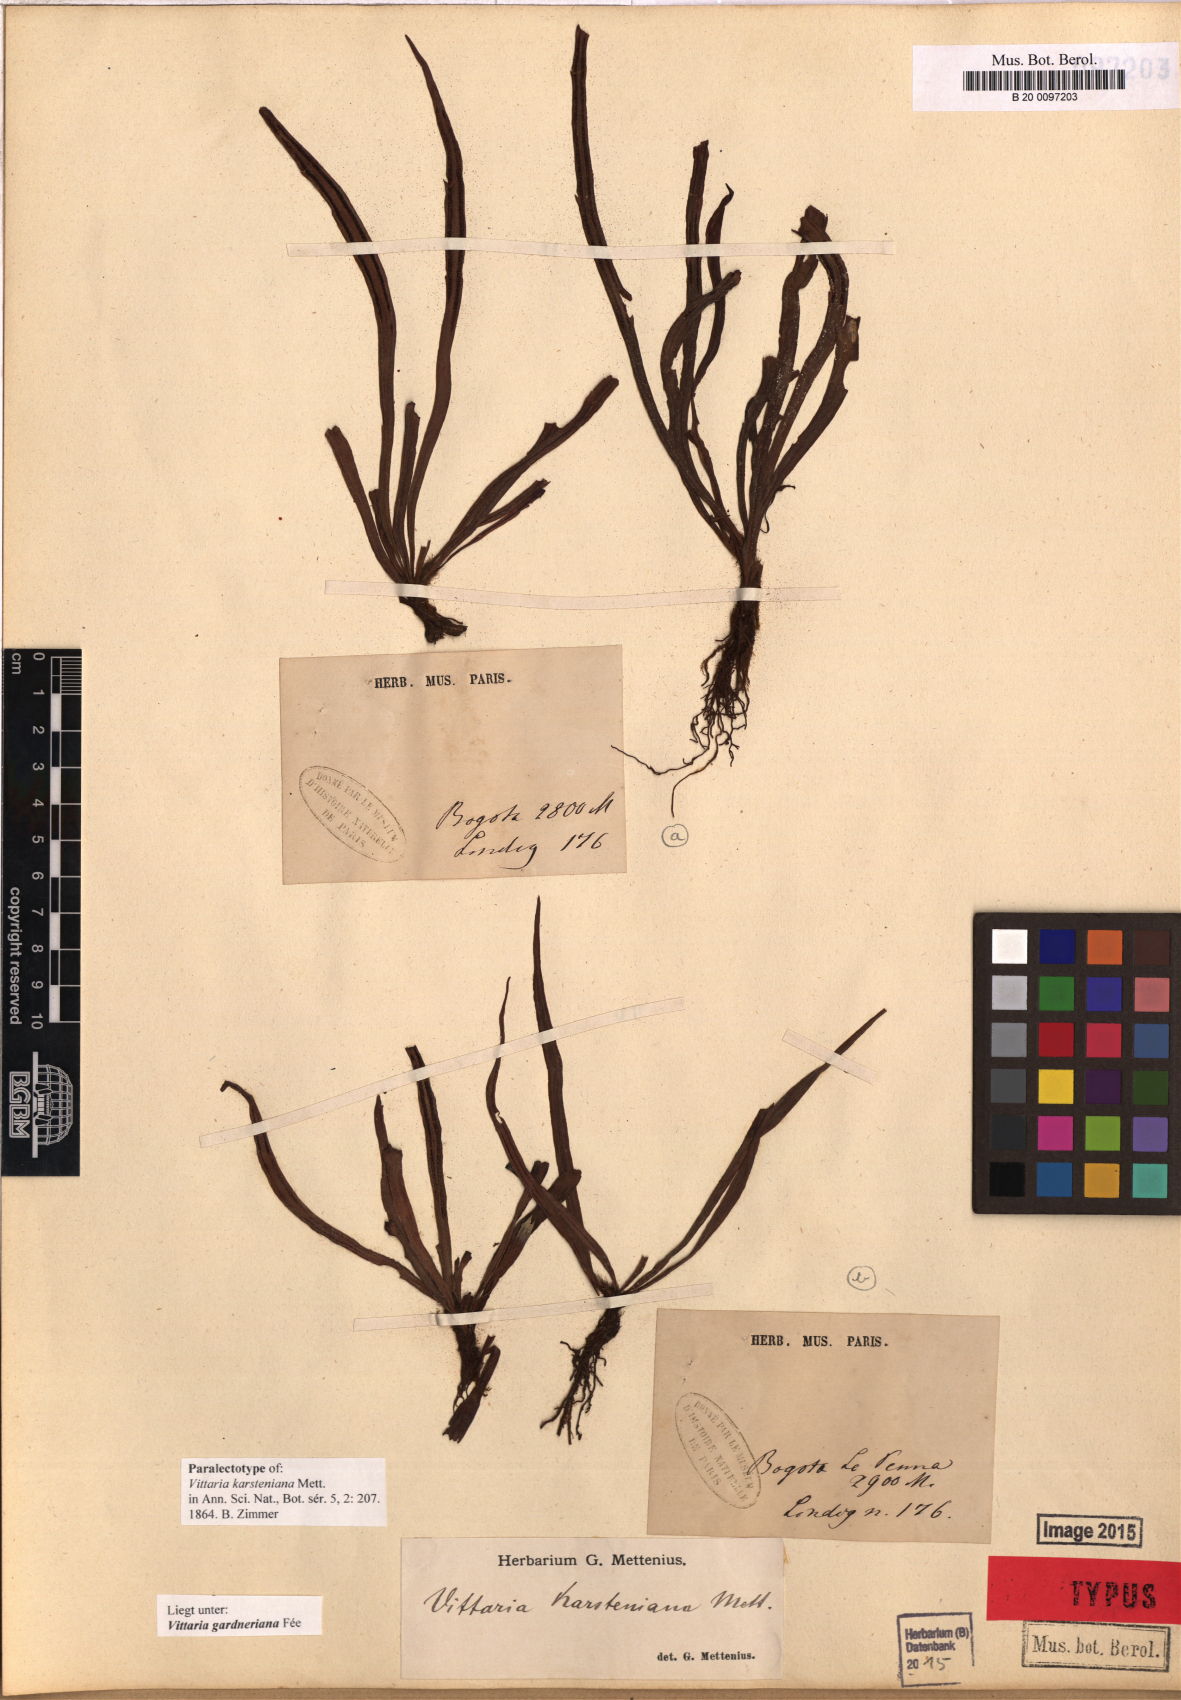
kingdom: Plantae
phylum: Tracheophyta
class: Polypodiopsida
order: Polypodiales
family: Pteridaceae
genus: Radiovittaria
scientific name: Radiovittaria gardneriana
